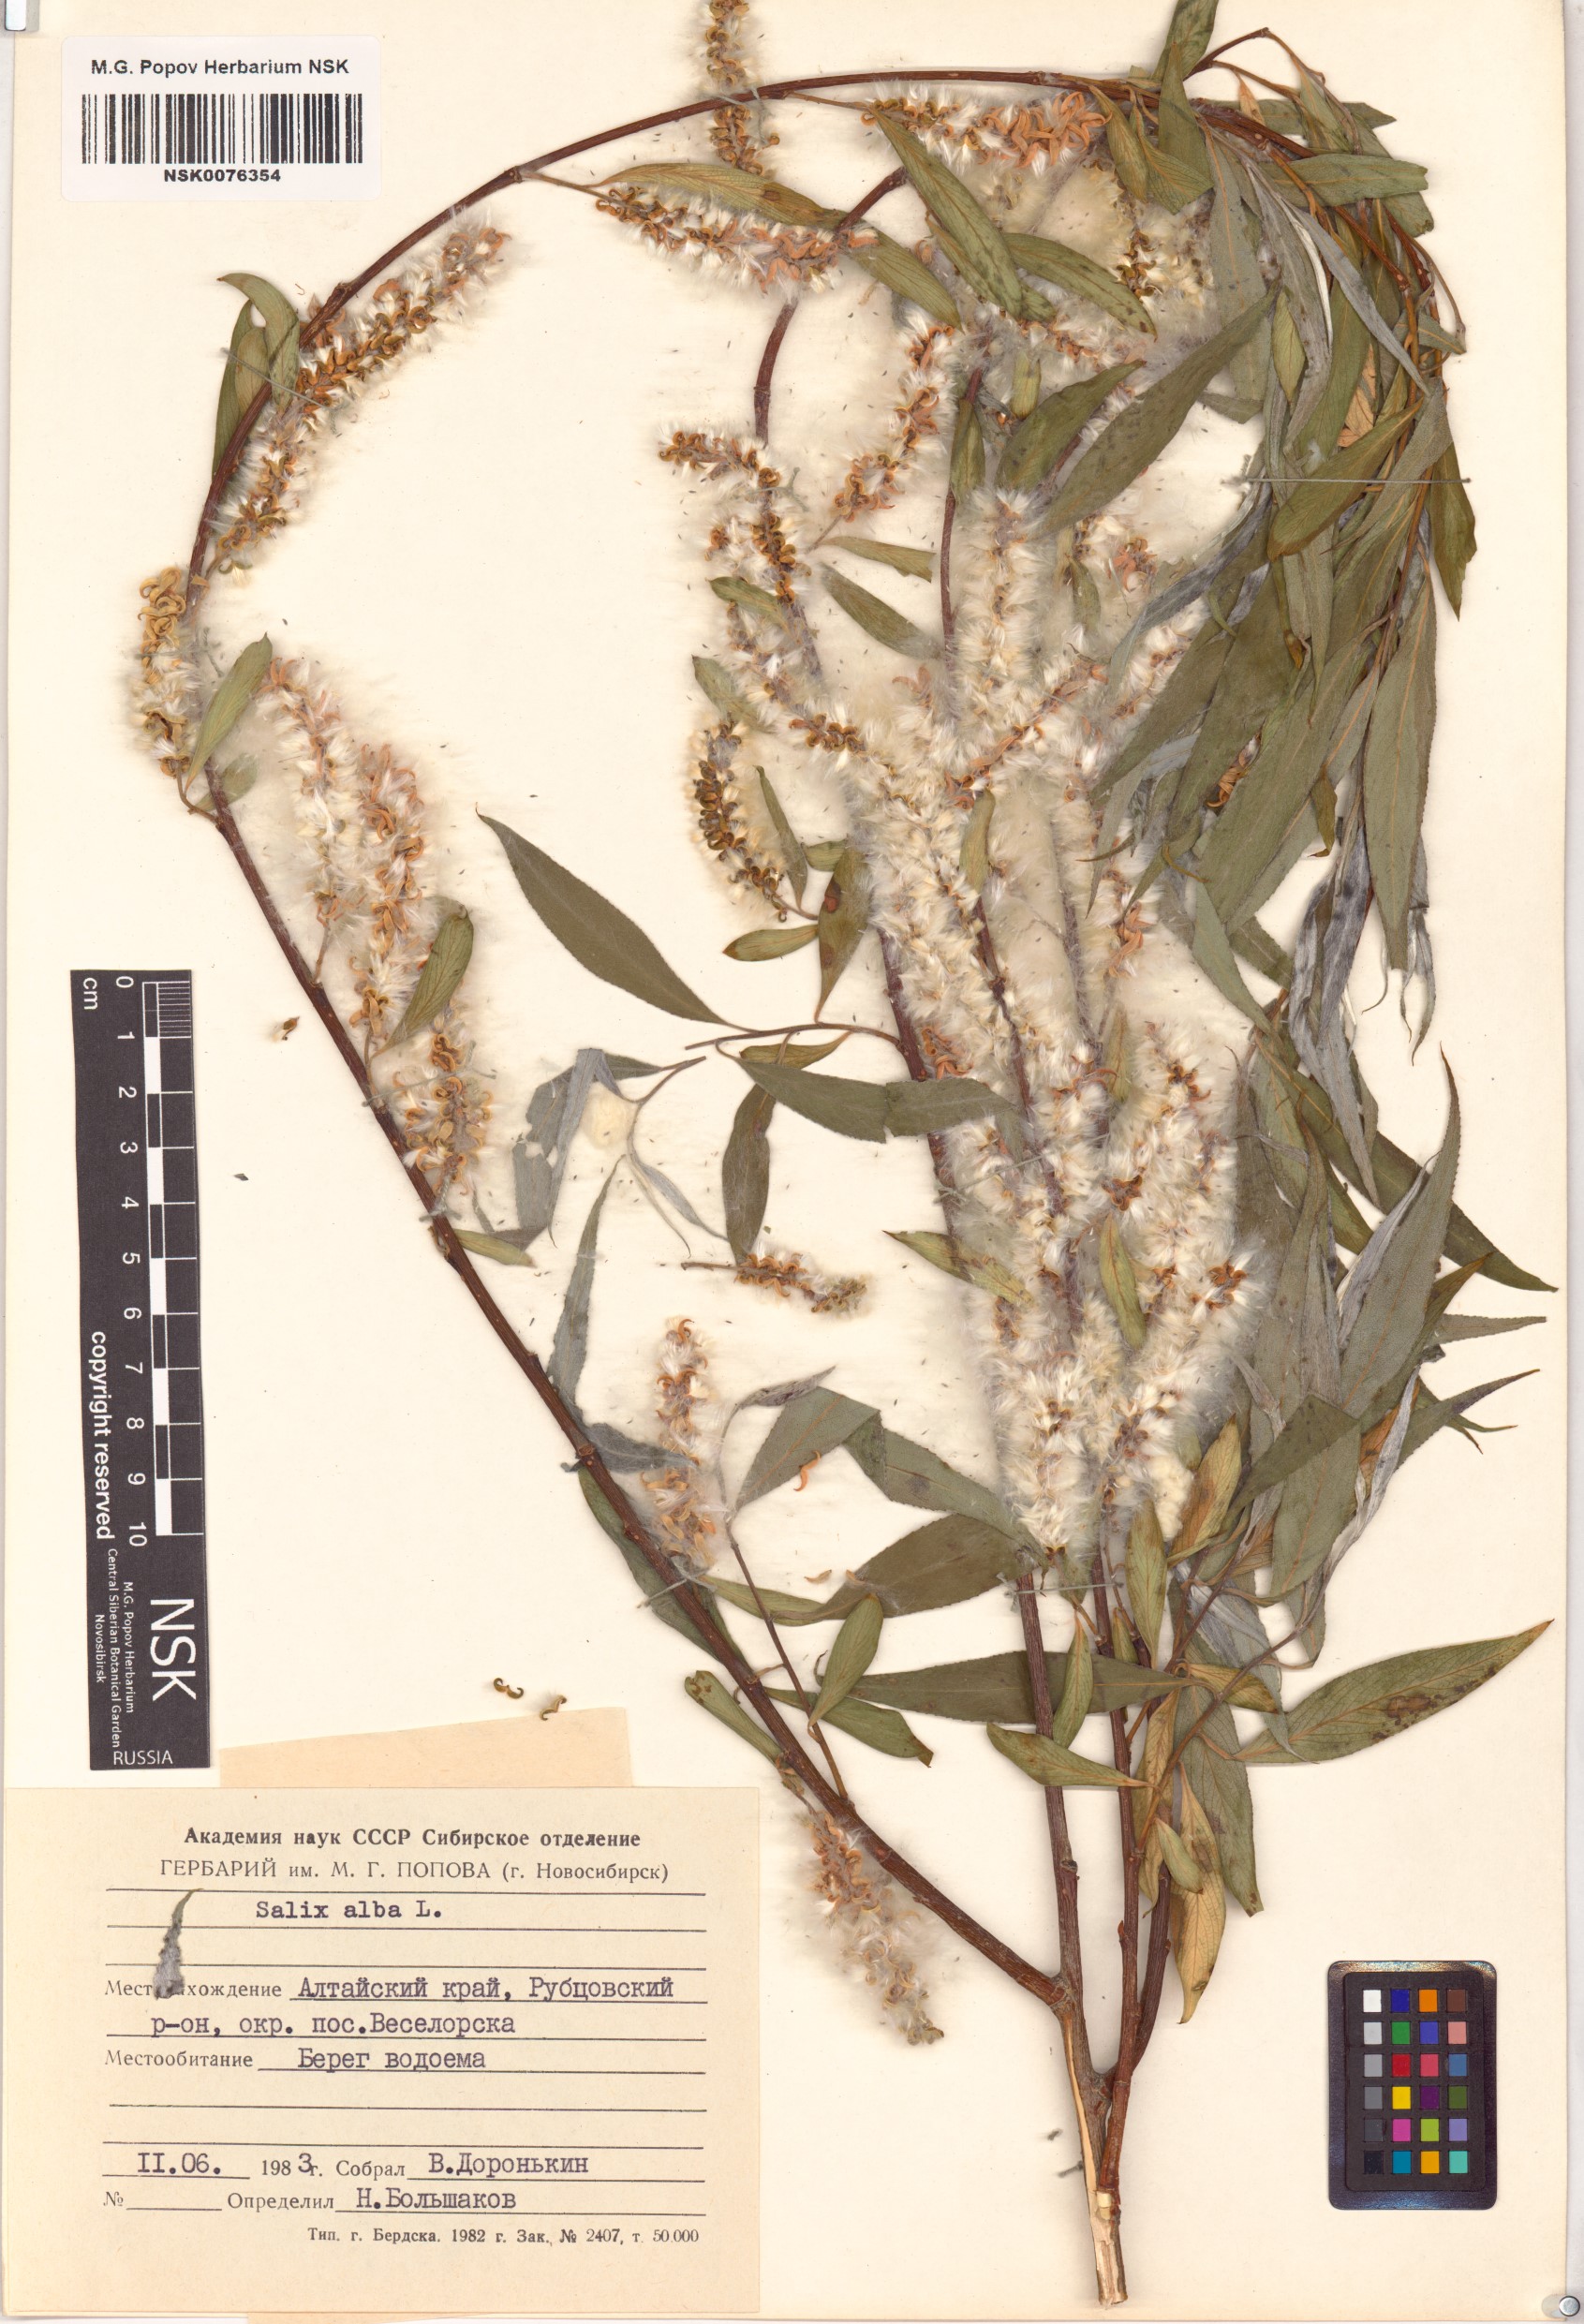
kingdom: Plantae
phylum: Tracheophyta
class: Magnoliopsida
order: Malpighiales
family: Salicaceae
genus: Salix
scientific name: Salix alba
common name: White willow
